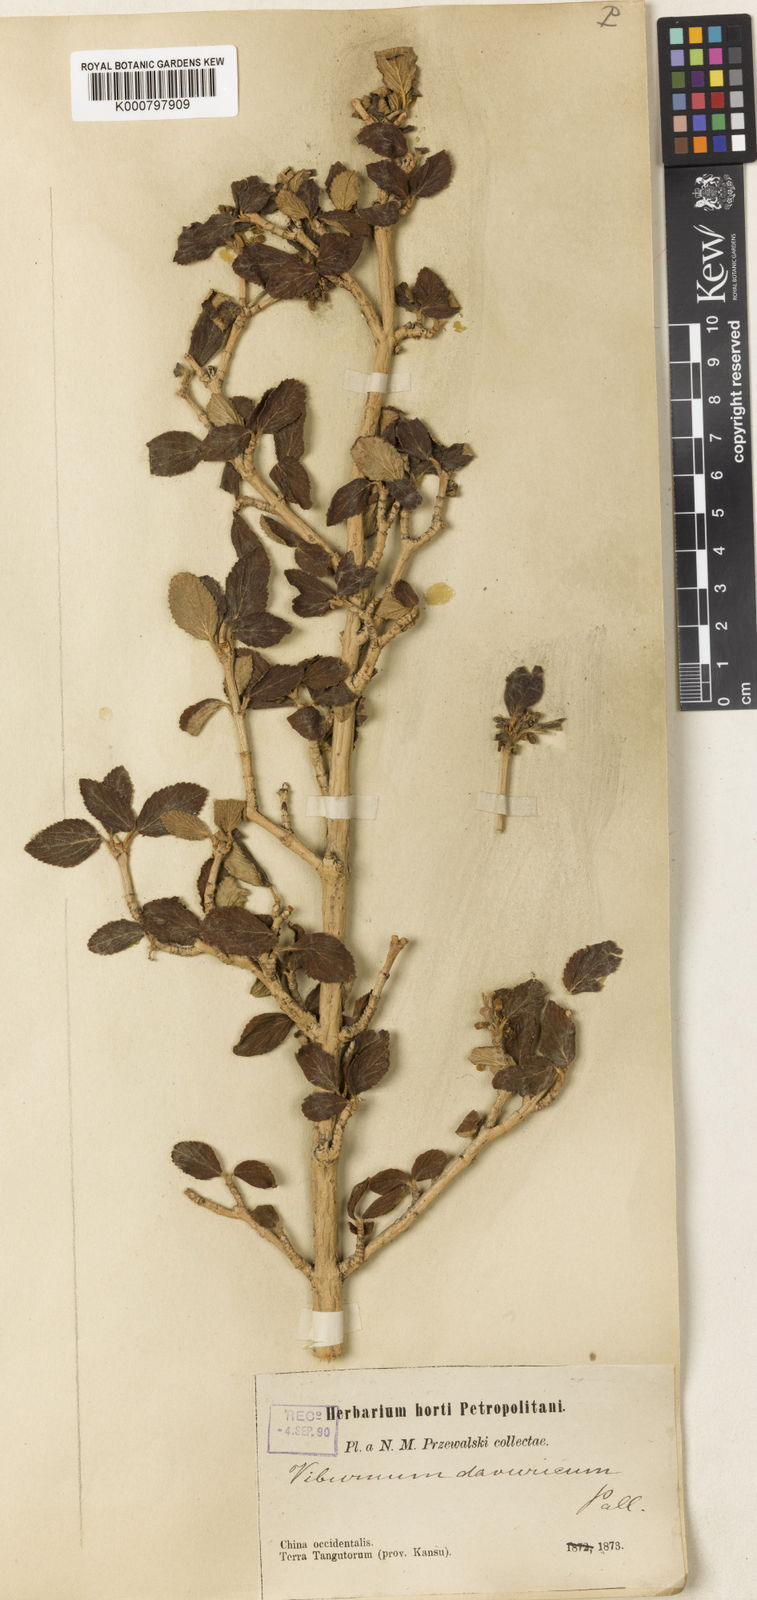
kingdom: Plantae
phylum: Tracheophyta
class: Magnoliopsida
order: Dipsacales
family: Viburnaceae
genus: Viburnum
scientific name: Viburnum
